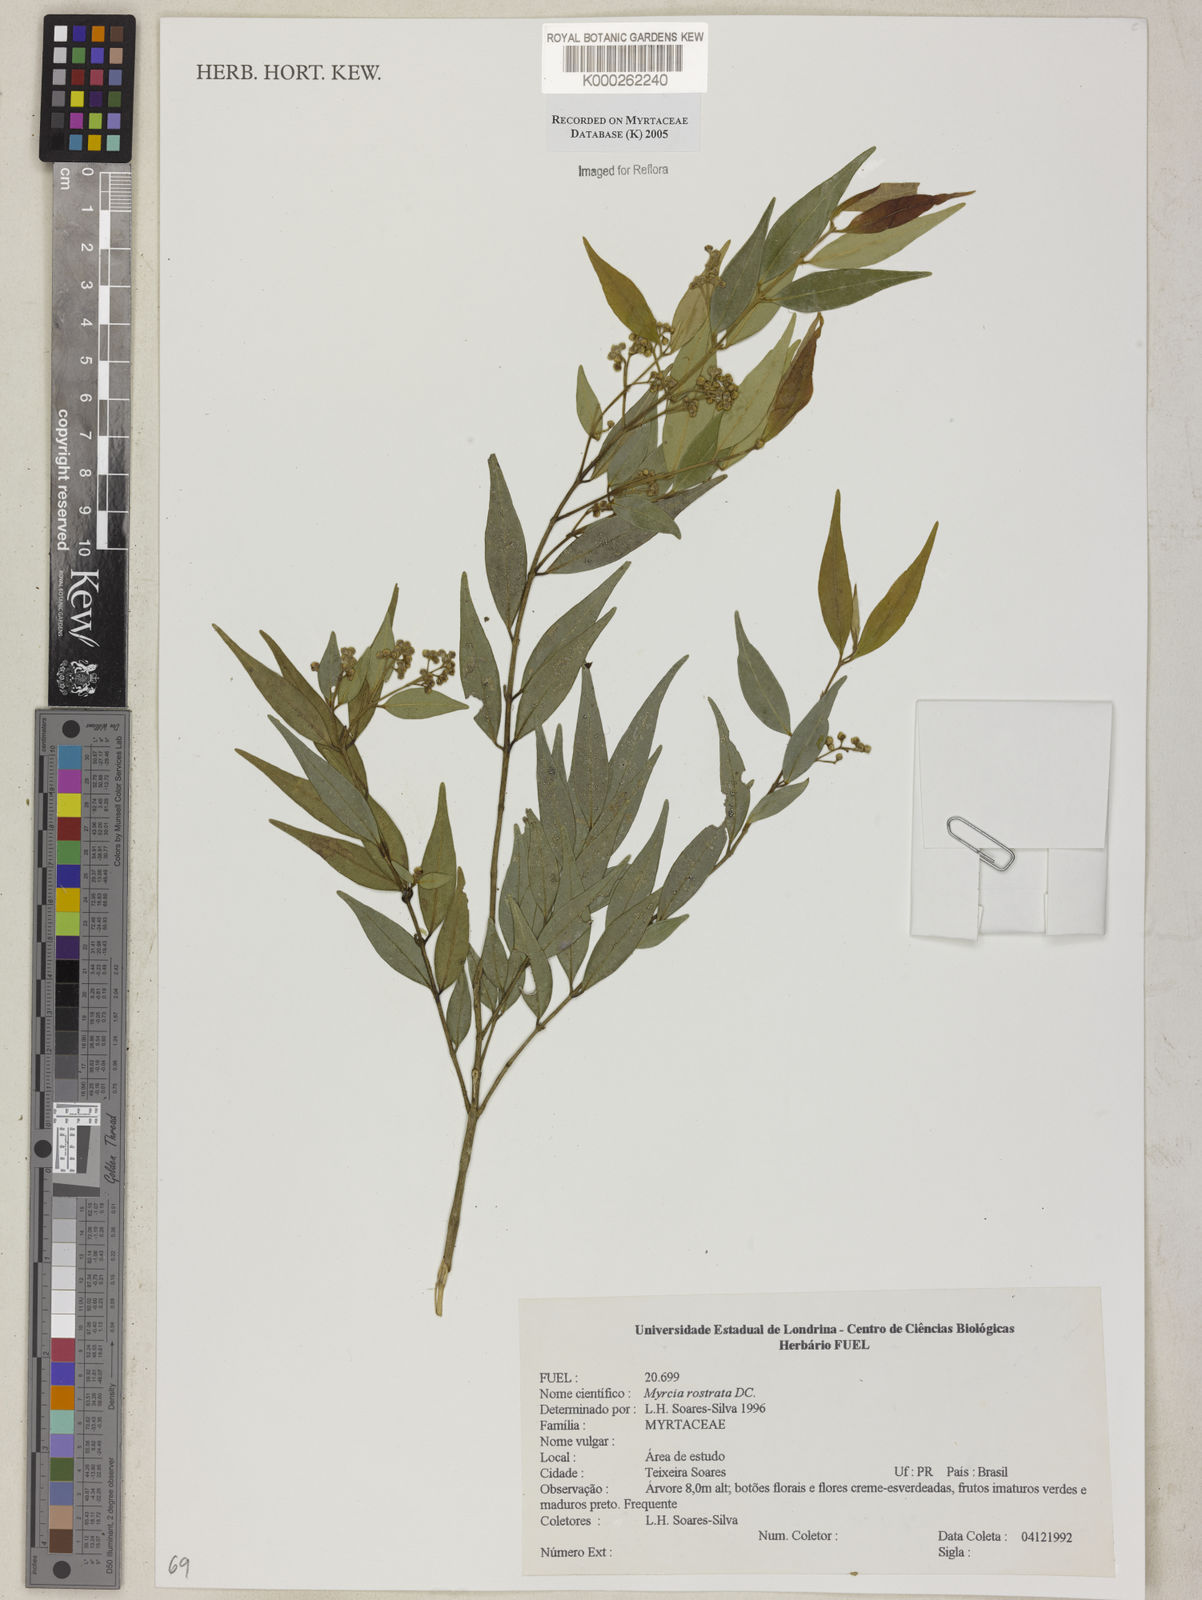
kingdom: Plantae
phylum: Tracheophyta
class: Magnoliopsida
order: Myrtales
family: Myrtaceae
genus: Myrcia
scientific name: Myrcia splendens
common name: Surinam cherry
